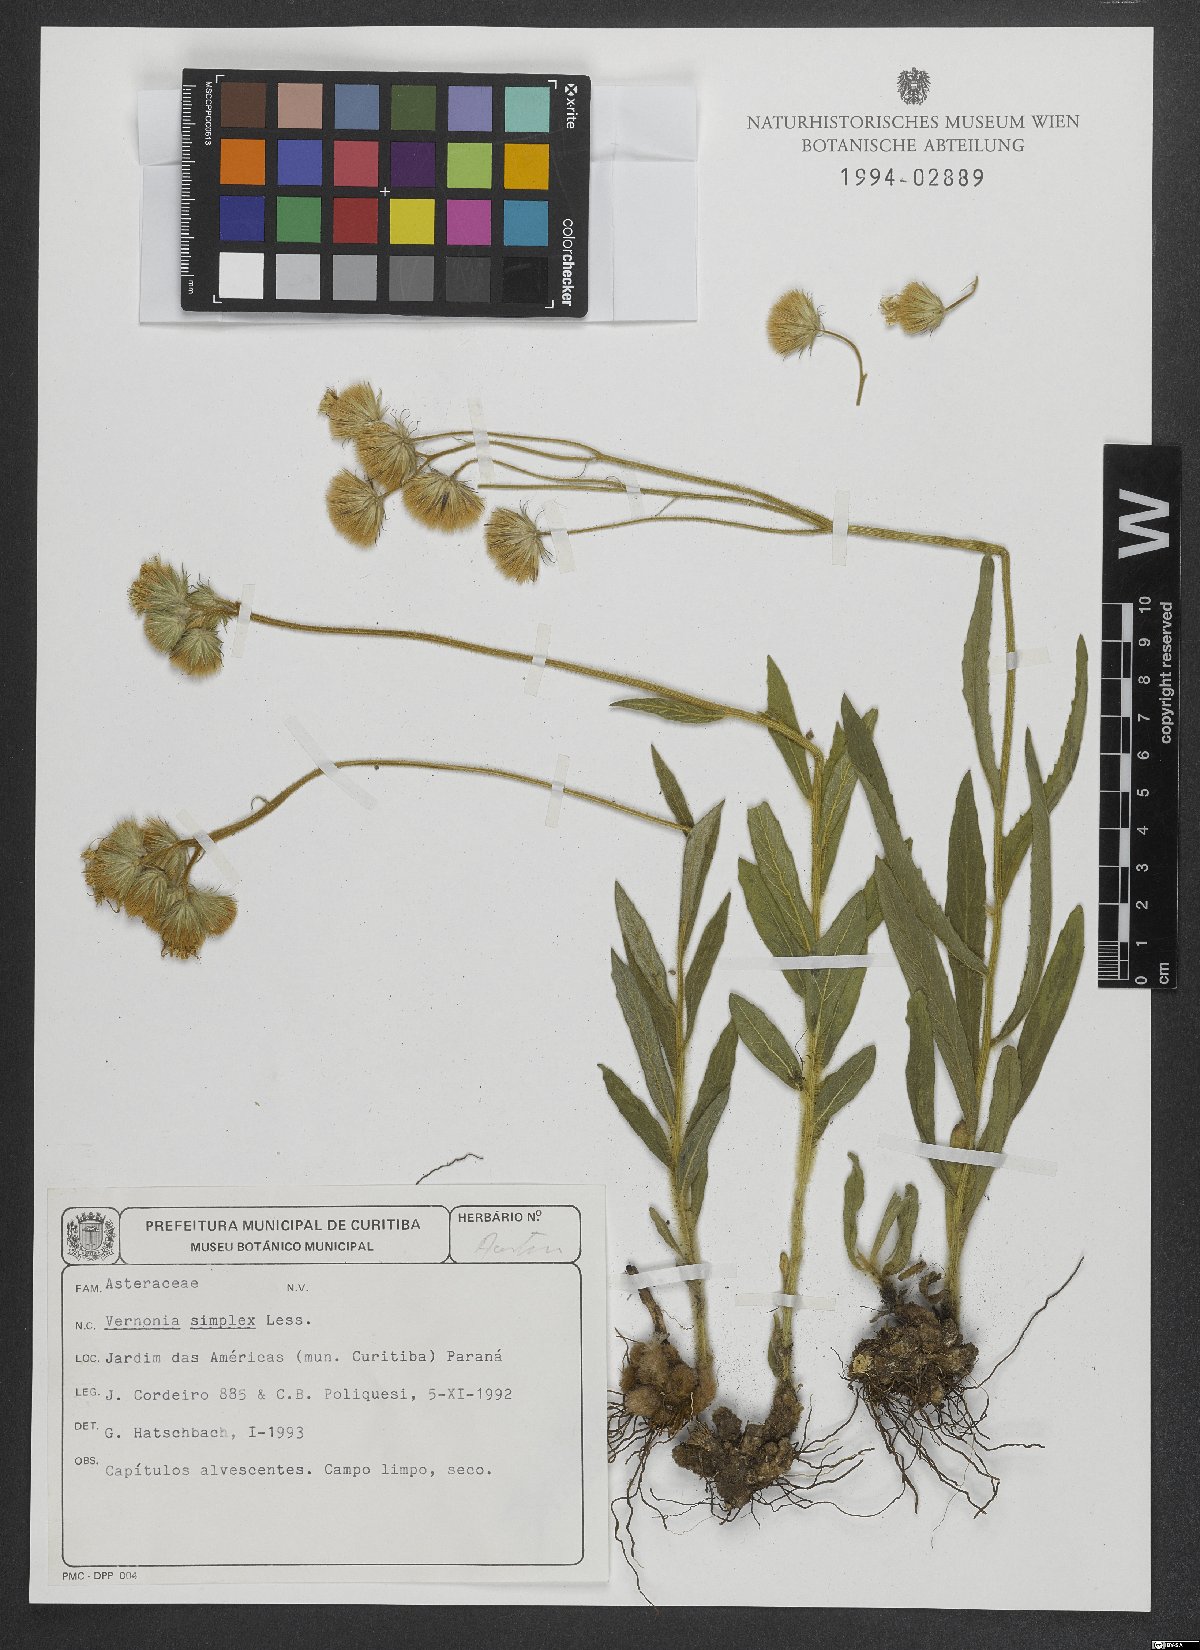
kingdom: Plantae
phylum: Tracheophyta
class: Magnoliopsida
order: Asterales
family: Asteraceae
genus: Chrysolaena
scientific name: Chrysolaena simplex
